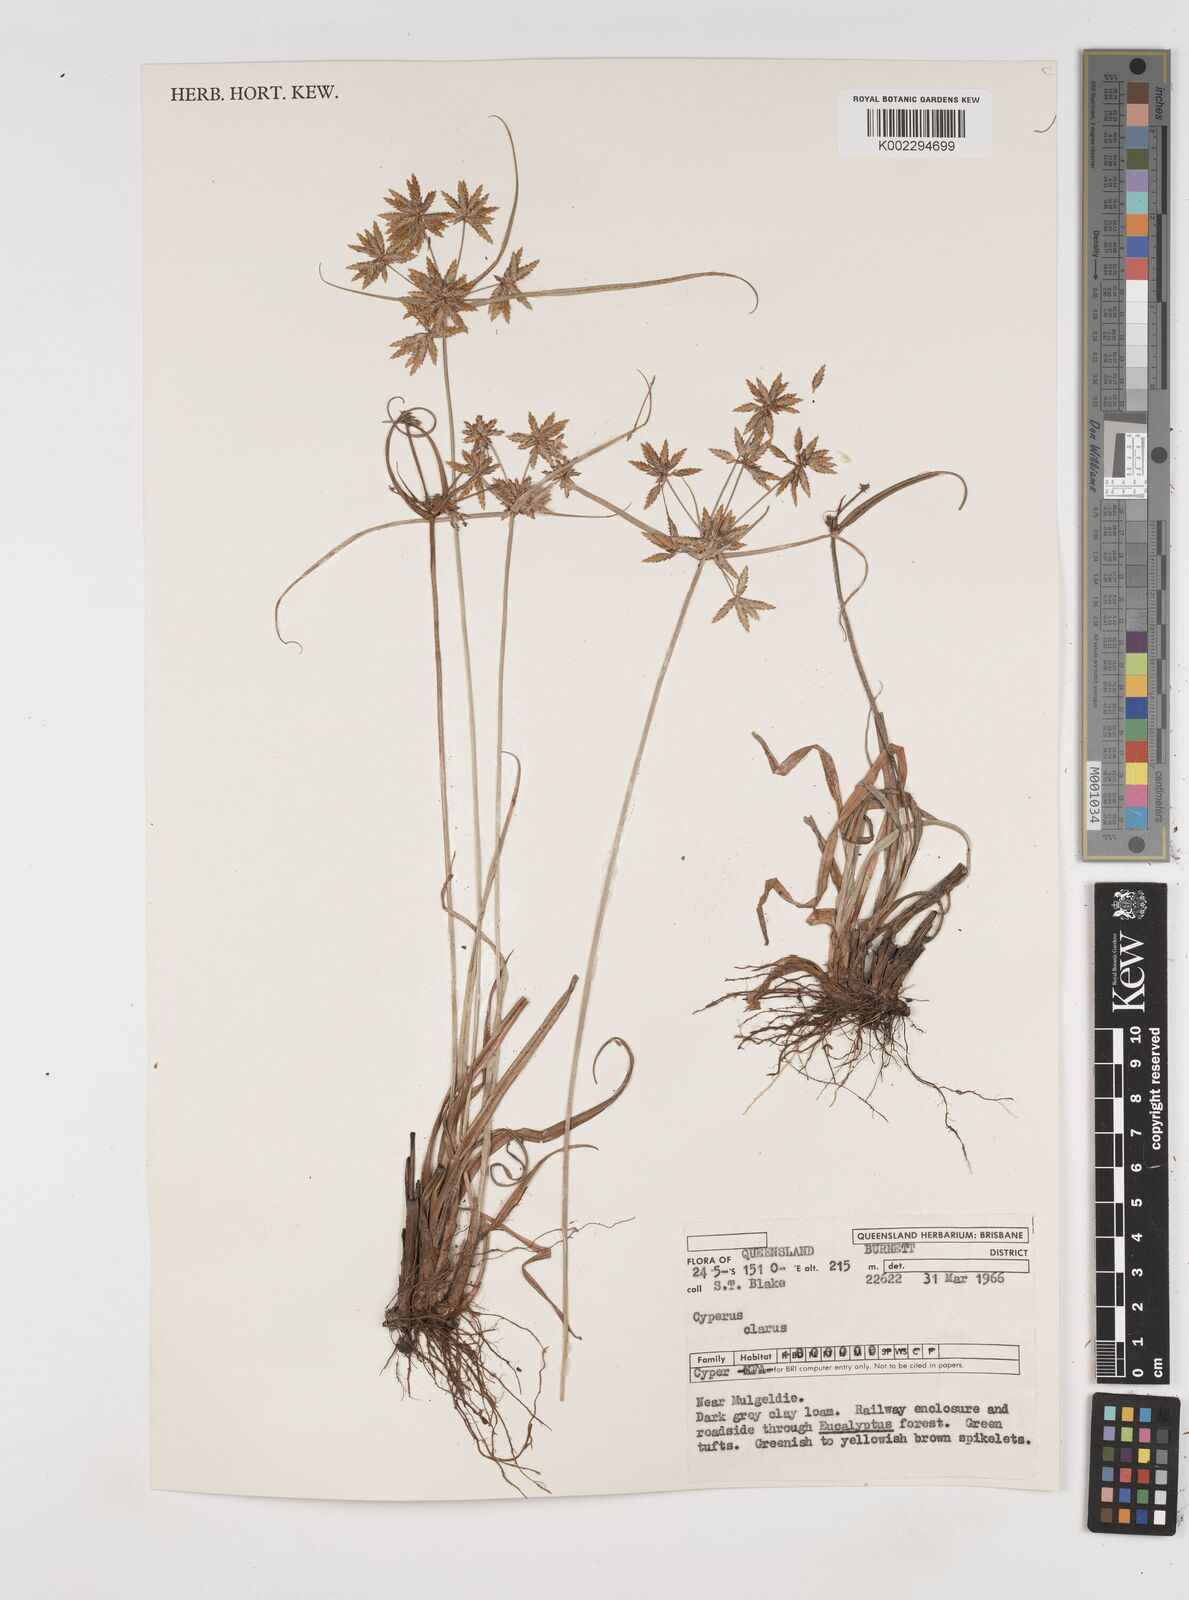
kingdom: Plantae
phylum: Tracheophyta
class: Liliopsida
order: Poales
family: Cyperaceae
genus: Cyperus
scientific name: Cyperus clarus
